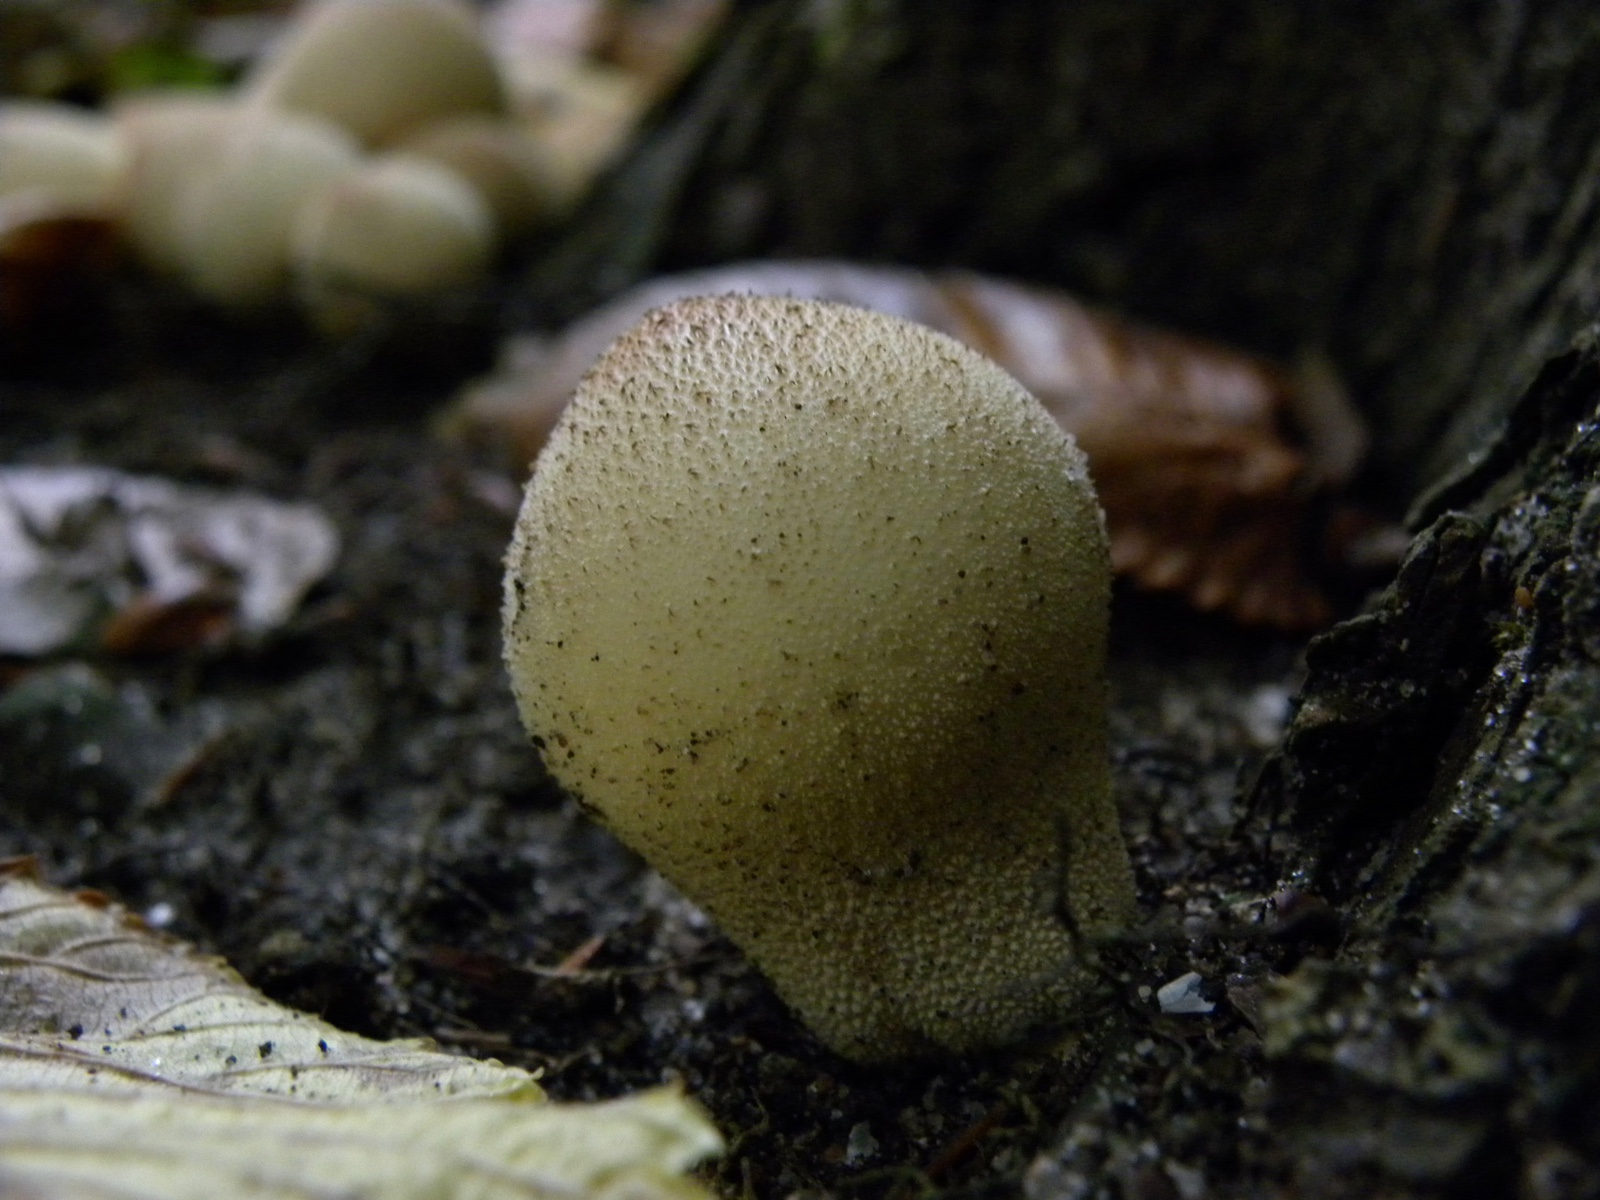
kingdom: Fungi
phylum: Basidiomycota
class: Agaricomycetes
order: Agaricales
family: Lycoperdaceae
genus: Apioperdon
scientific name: Apioperdon pyriforme
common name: pære-støvbold
